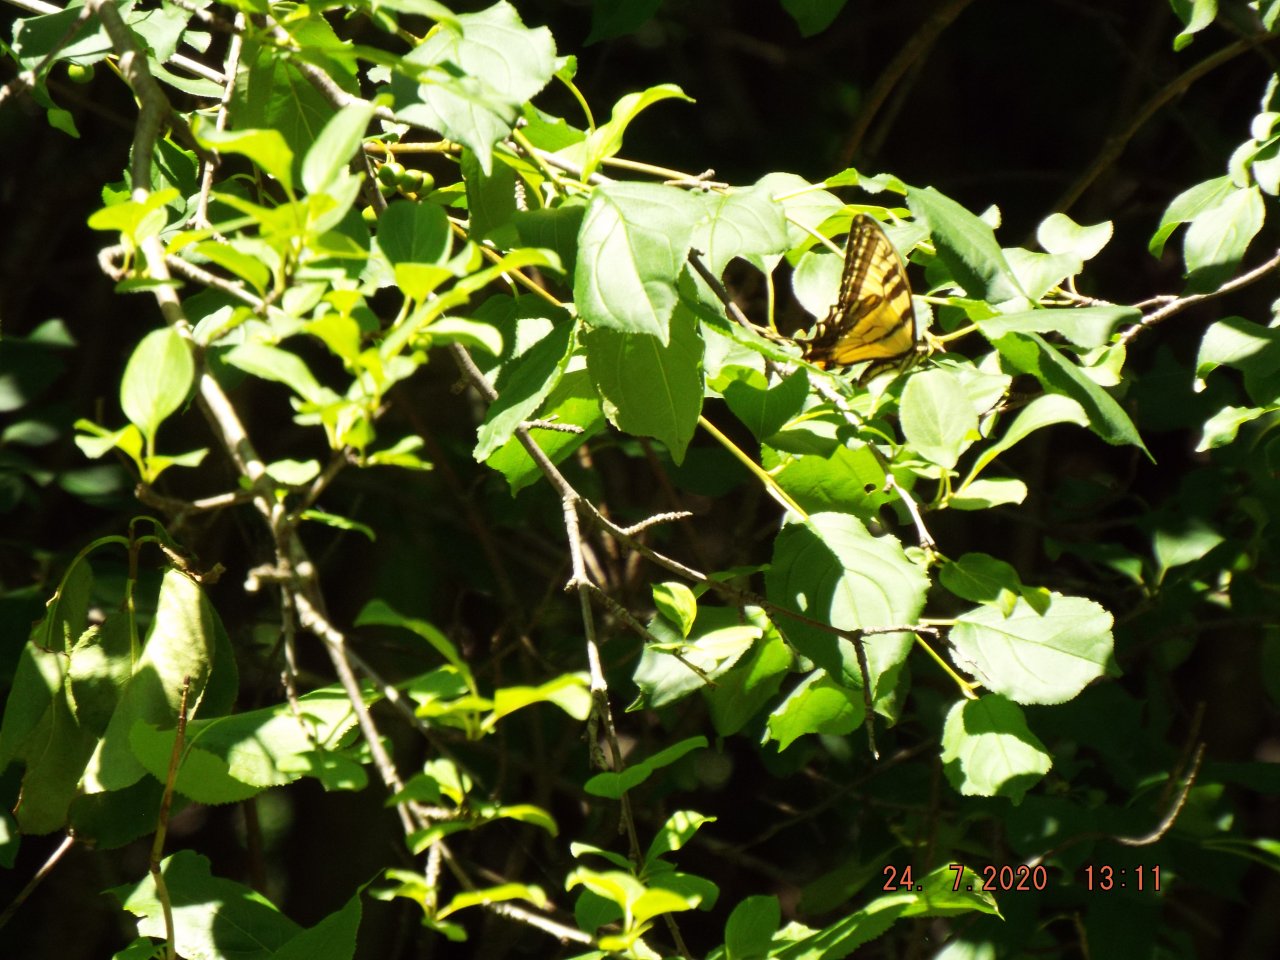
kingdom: Animalia
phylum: Arthropoda
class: Insecta
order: Lepidoptera
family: Papilionidae
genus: Pterourus
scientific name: Pterourus glaucus
